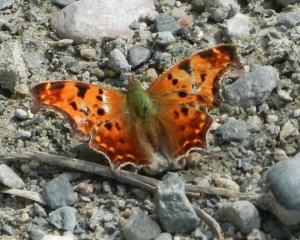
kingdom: Animalia
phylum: Arthropoda
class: Insecta
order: Lepidoptera
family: Nymphalidae
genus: Polygonia
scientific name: Polygonia comma
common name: Eastern Comma
